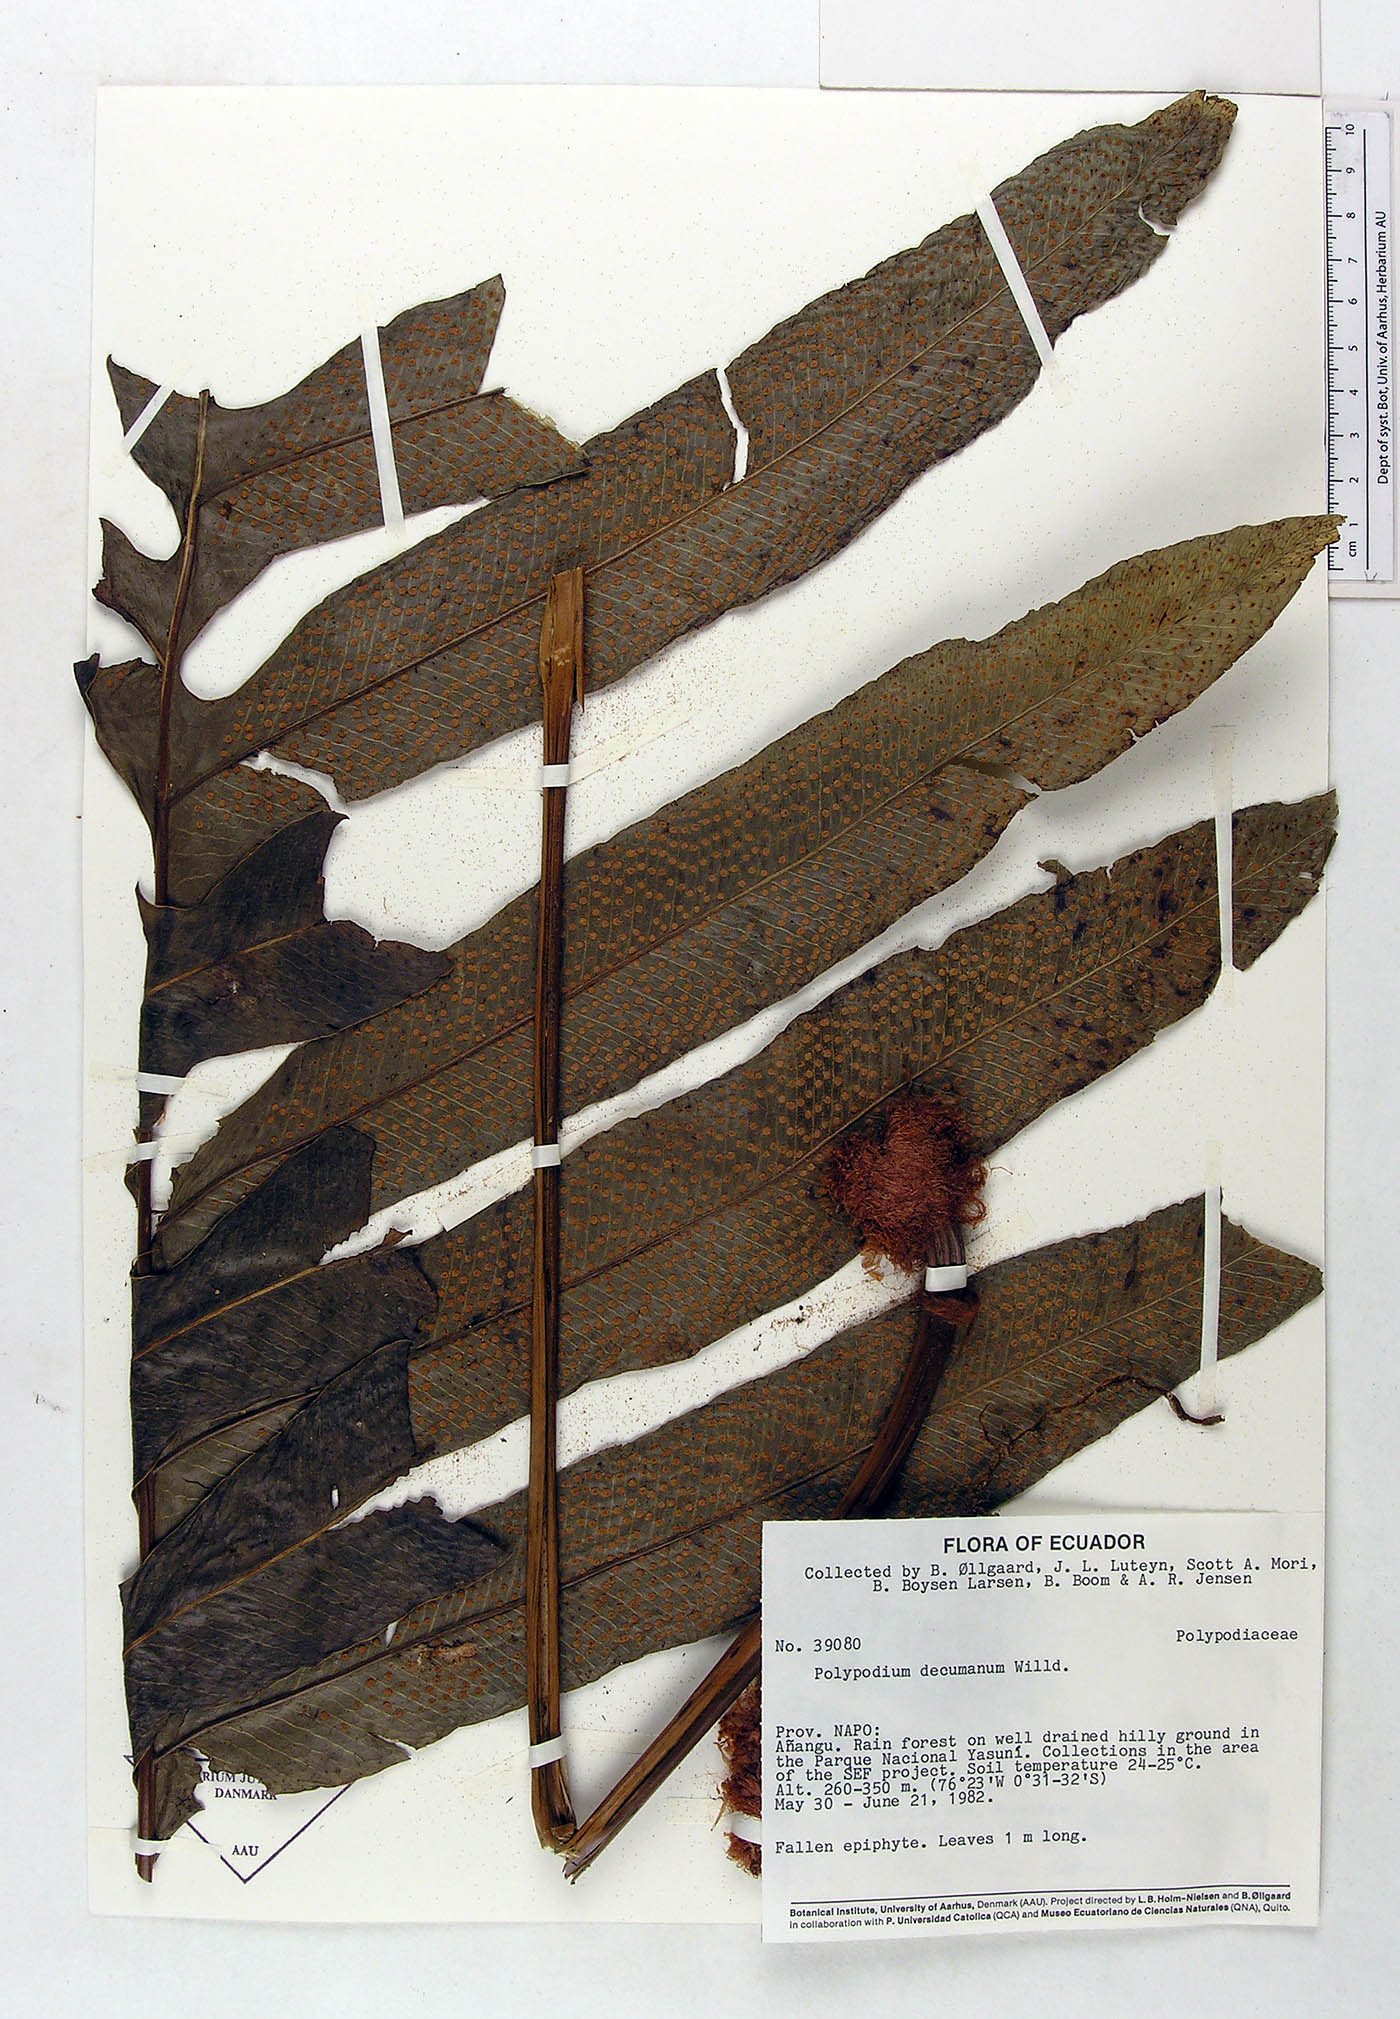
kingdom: Plantae
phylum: Tracheophyta
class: Polypodiopsida
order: Polypodiales
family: Polypodiaceae
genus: Phlebodium
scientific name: Phlebodium decumanum
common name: Golden polypod
